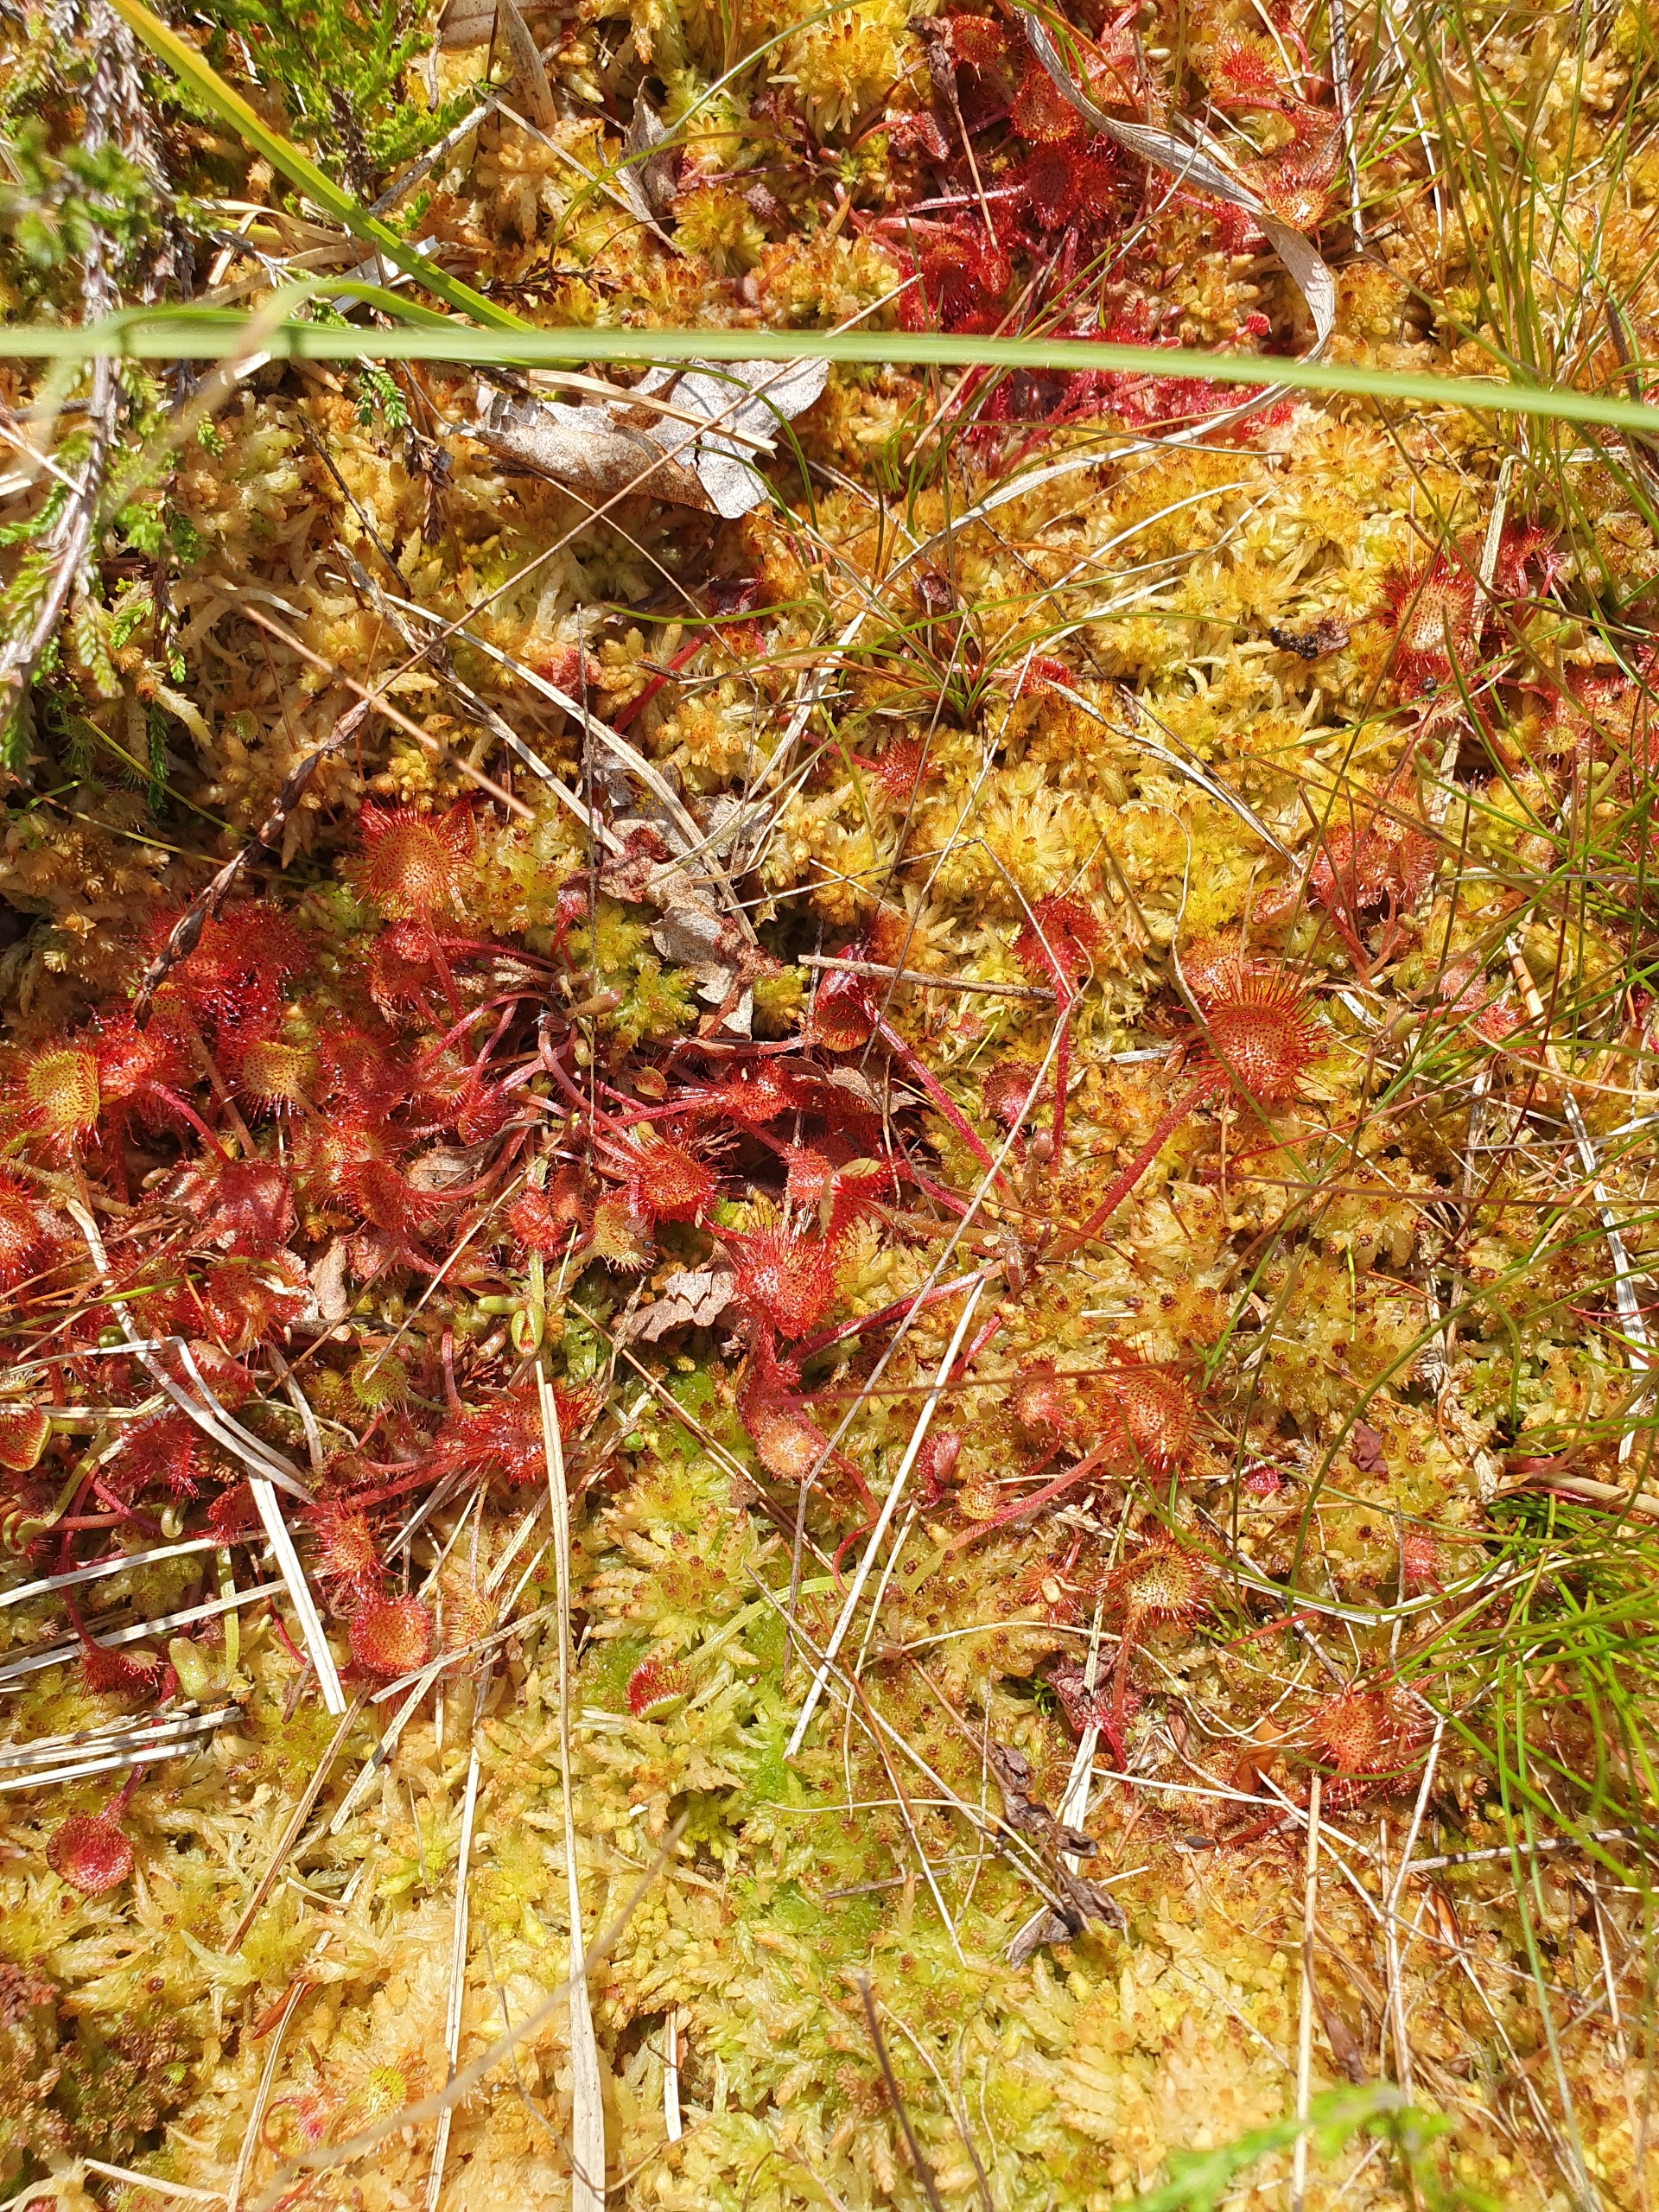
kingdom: Plantae
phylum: Tracheophyta
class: Magnoliopsida
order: Caryophyllales
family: Droseraceae
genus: Drosera
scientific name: Drosera rotundifolia
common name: Rundbladet soldug
